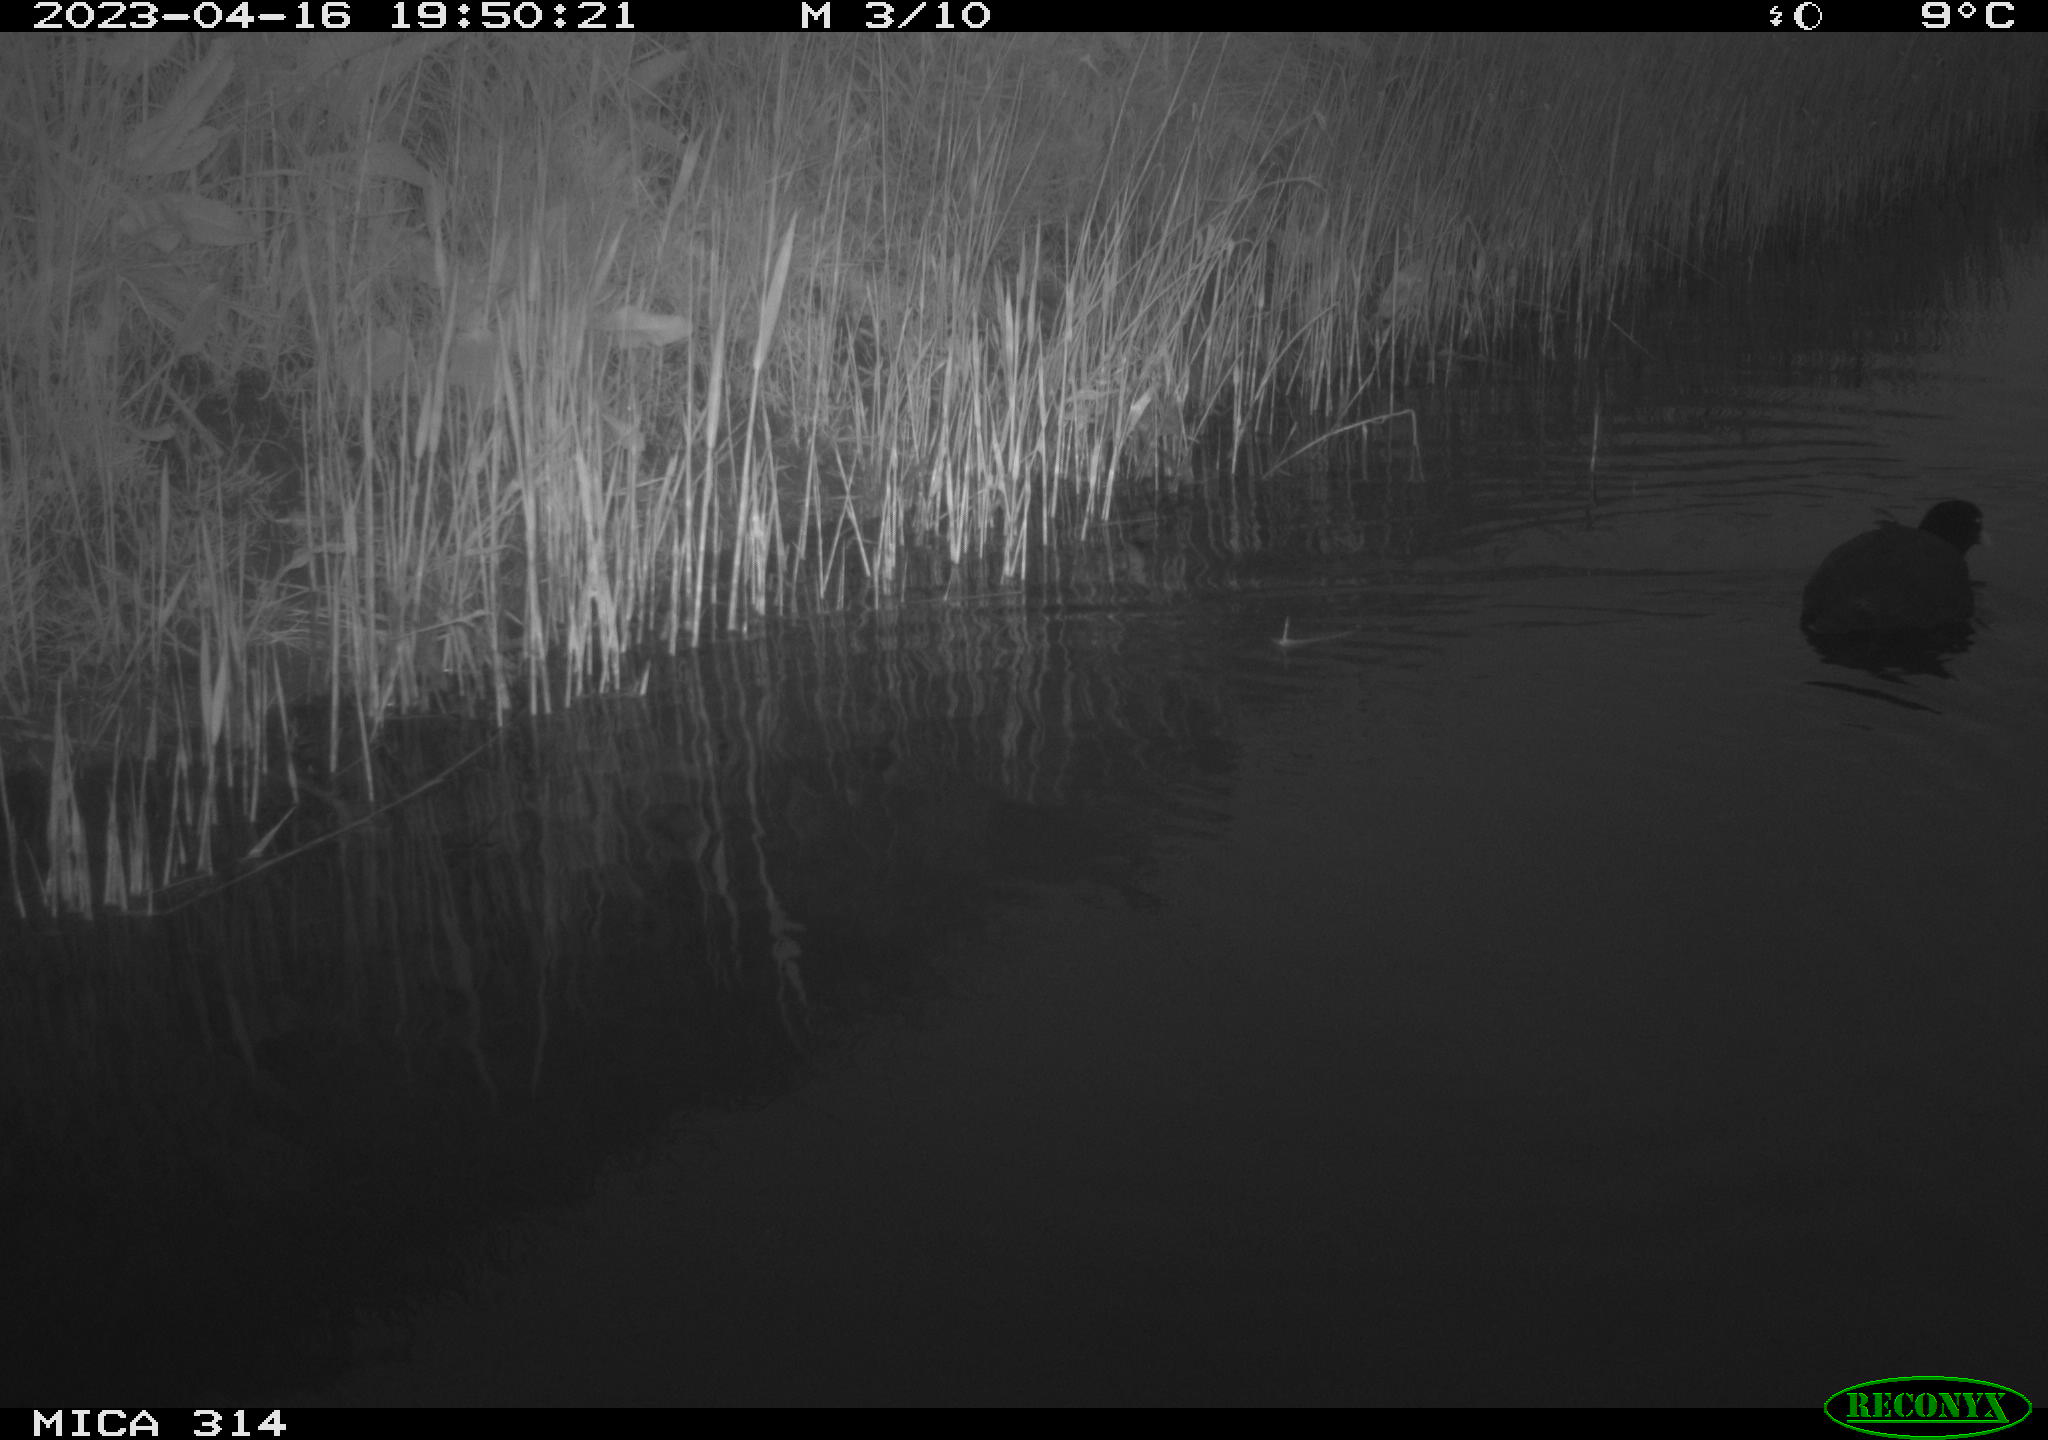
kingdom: Animalia
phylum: Chordata
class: Aves
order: Gruiformes
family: Rallidae
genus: Fulica
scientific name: Fulica atra
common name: Eurasian coot
